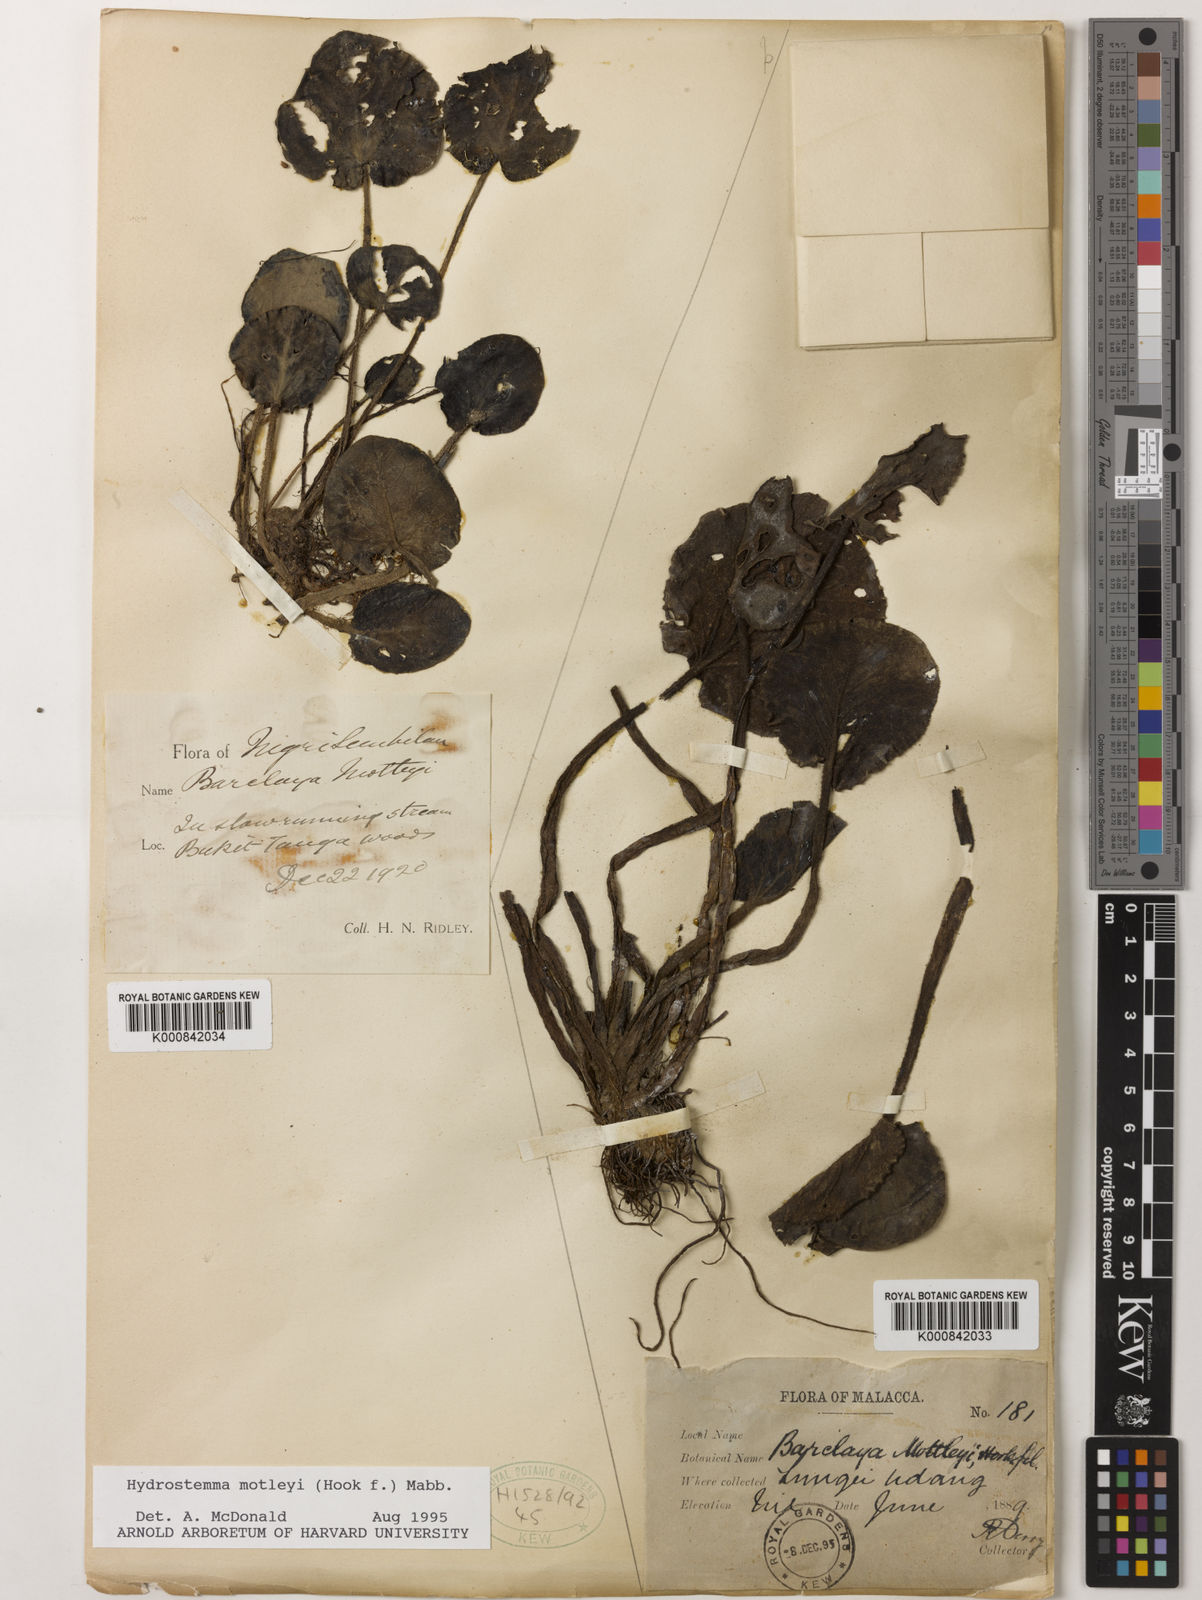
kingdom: Plantae
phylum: Tracheophyta
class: Magnoliopsida
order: Nymphaeales
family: Nymphaeaceae
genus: Barclaya
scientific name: Barclaya motleyi
